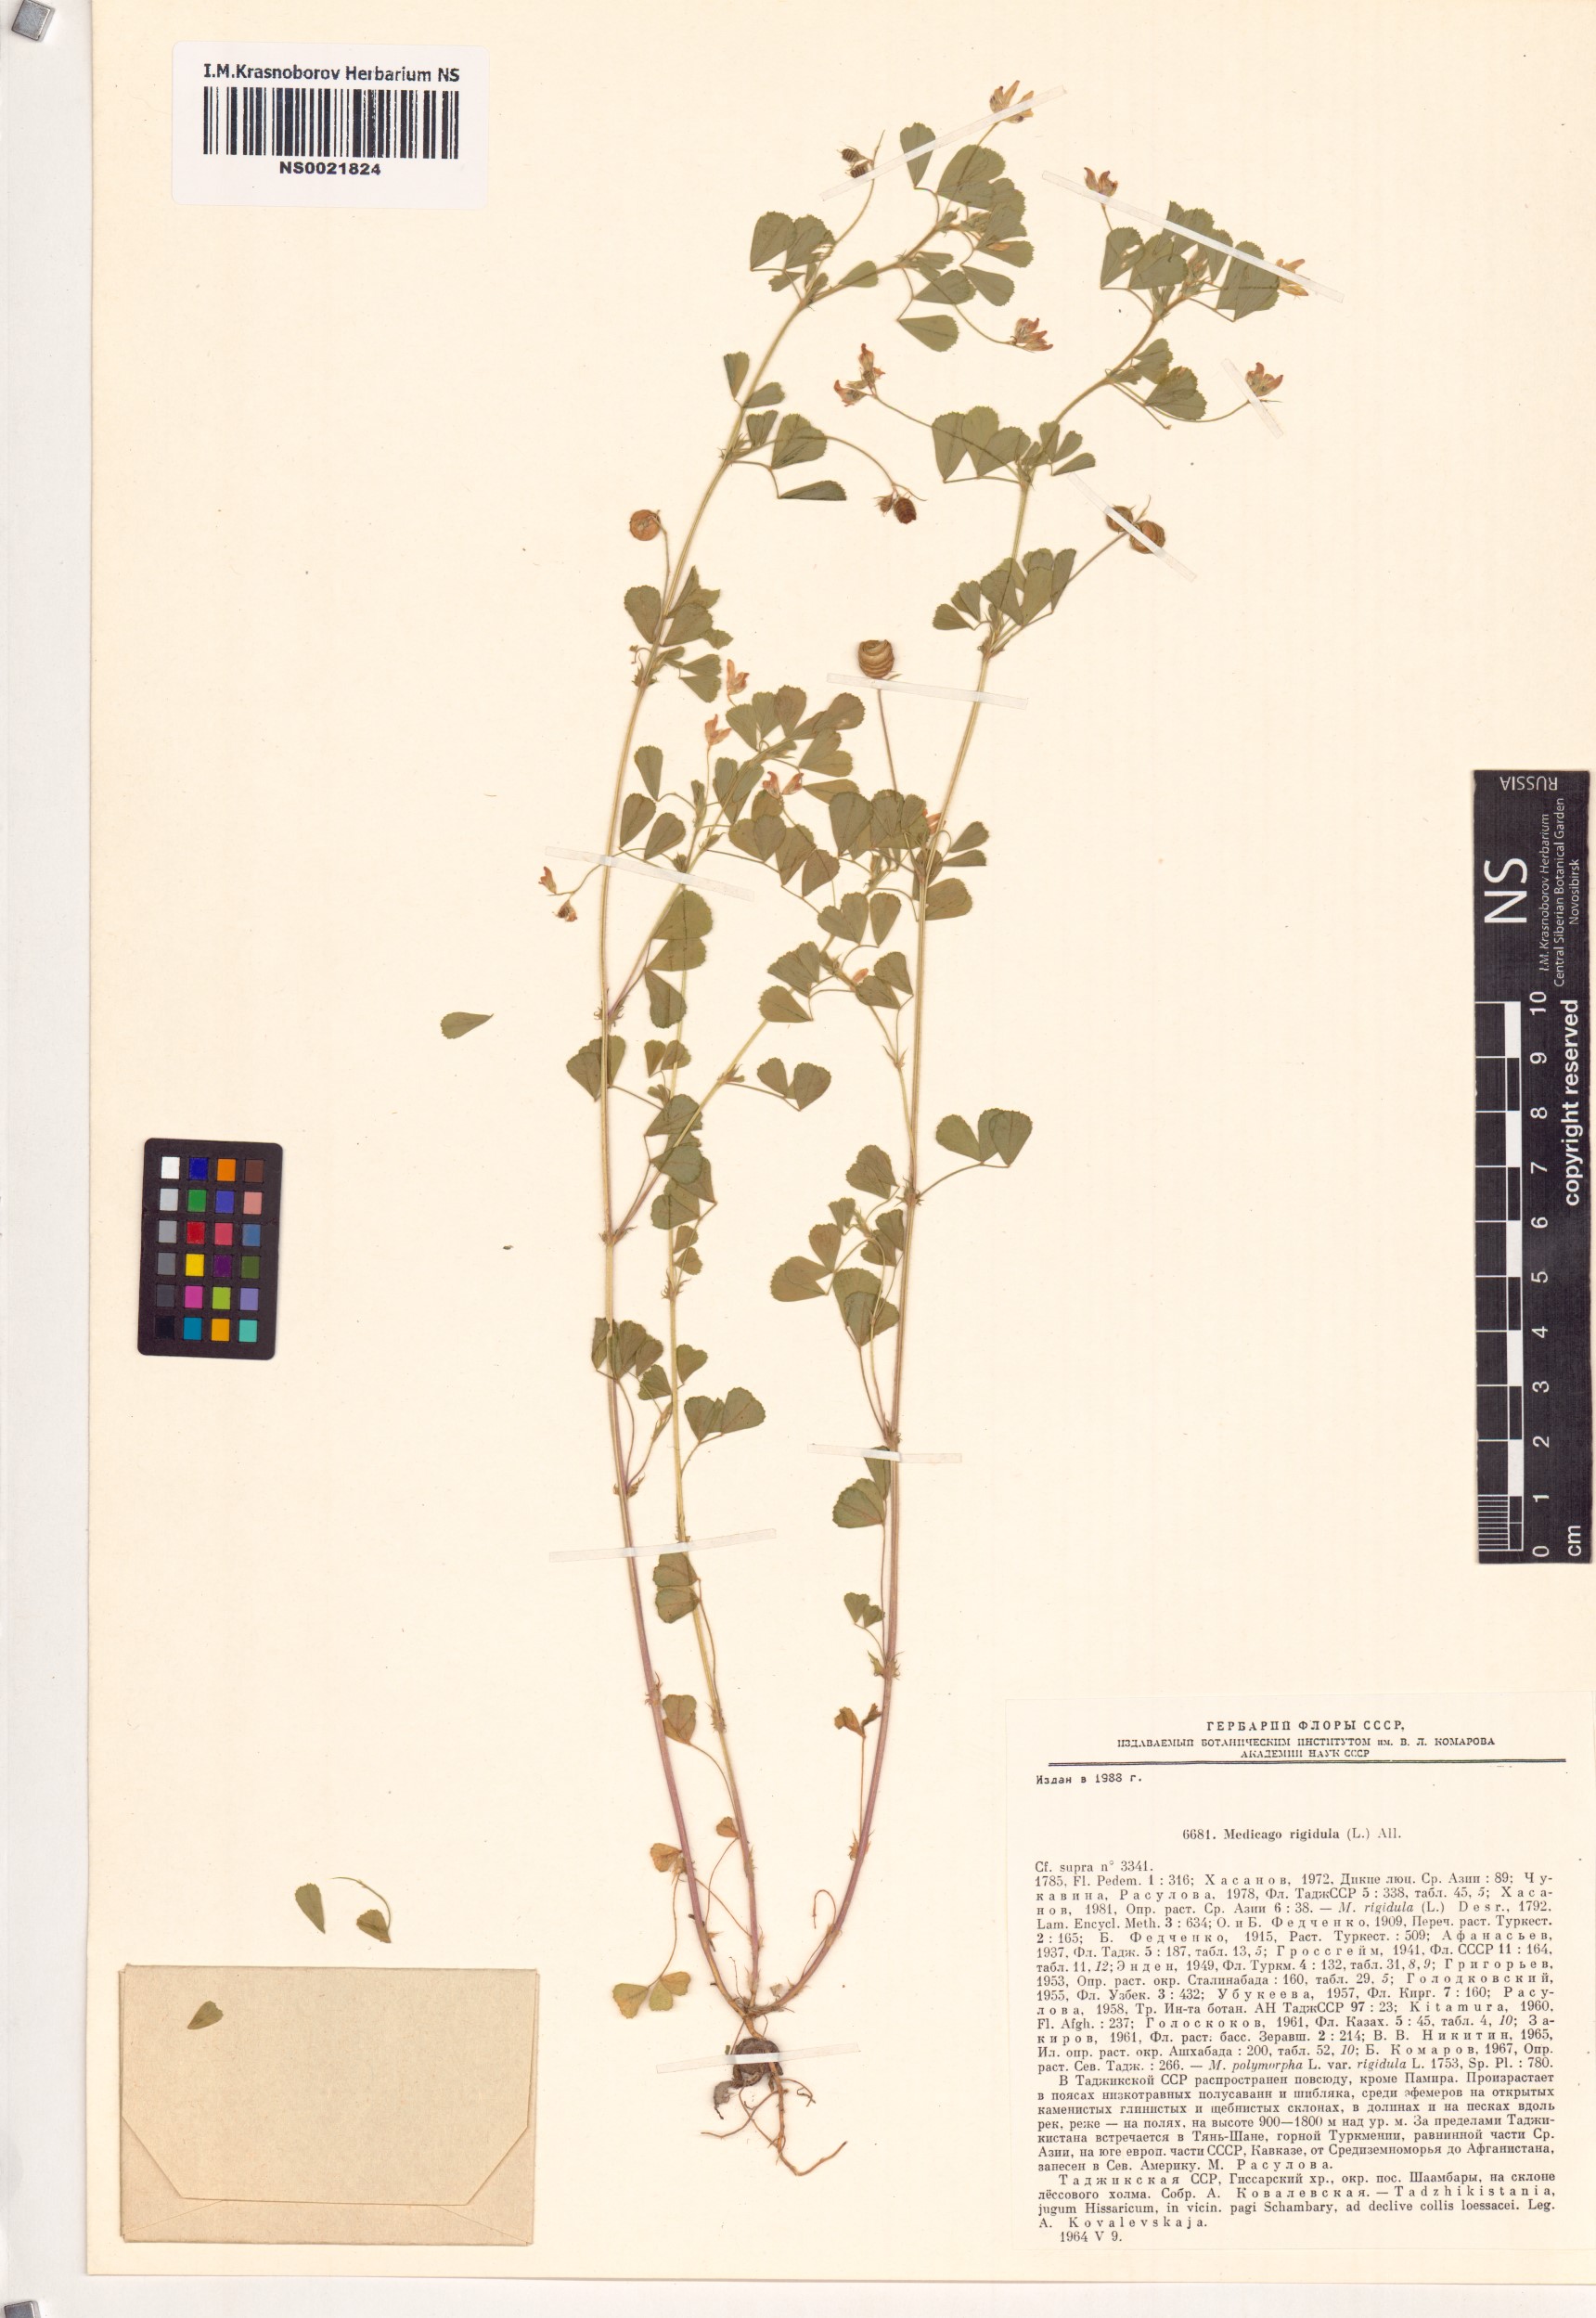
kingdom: Plantae
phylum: Tracheophyta
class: Magnoliopsida
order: Fabales
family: Fabaceae
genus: Medicago
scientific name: Medicago rigidula
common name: Tifton medic
